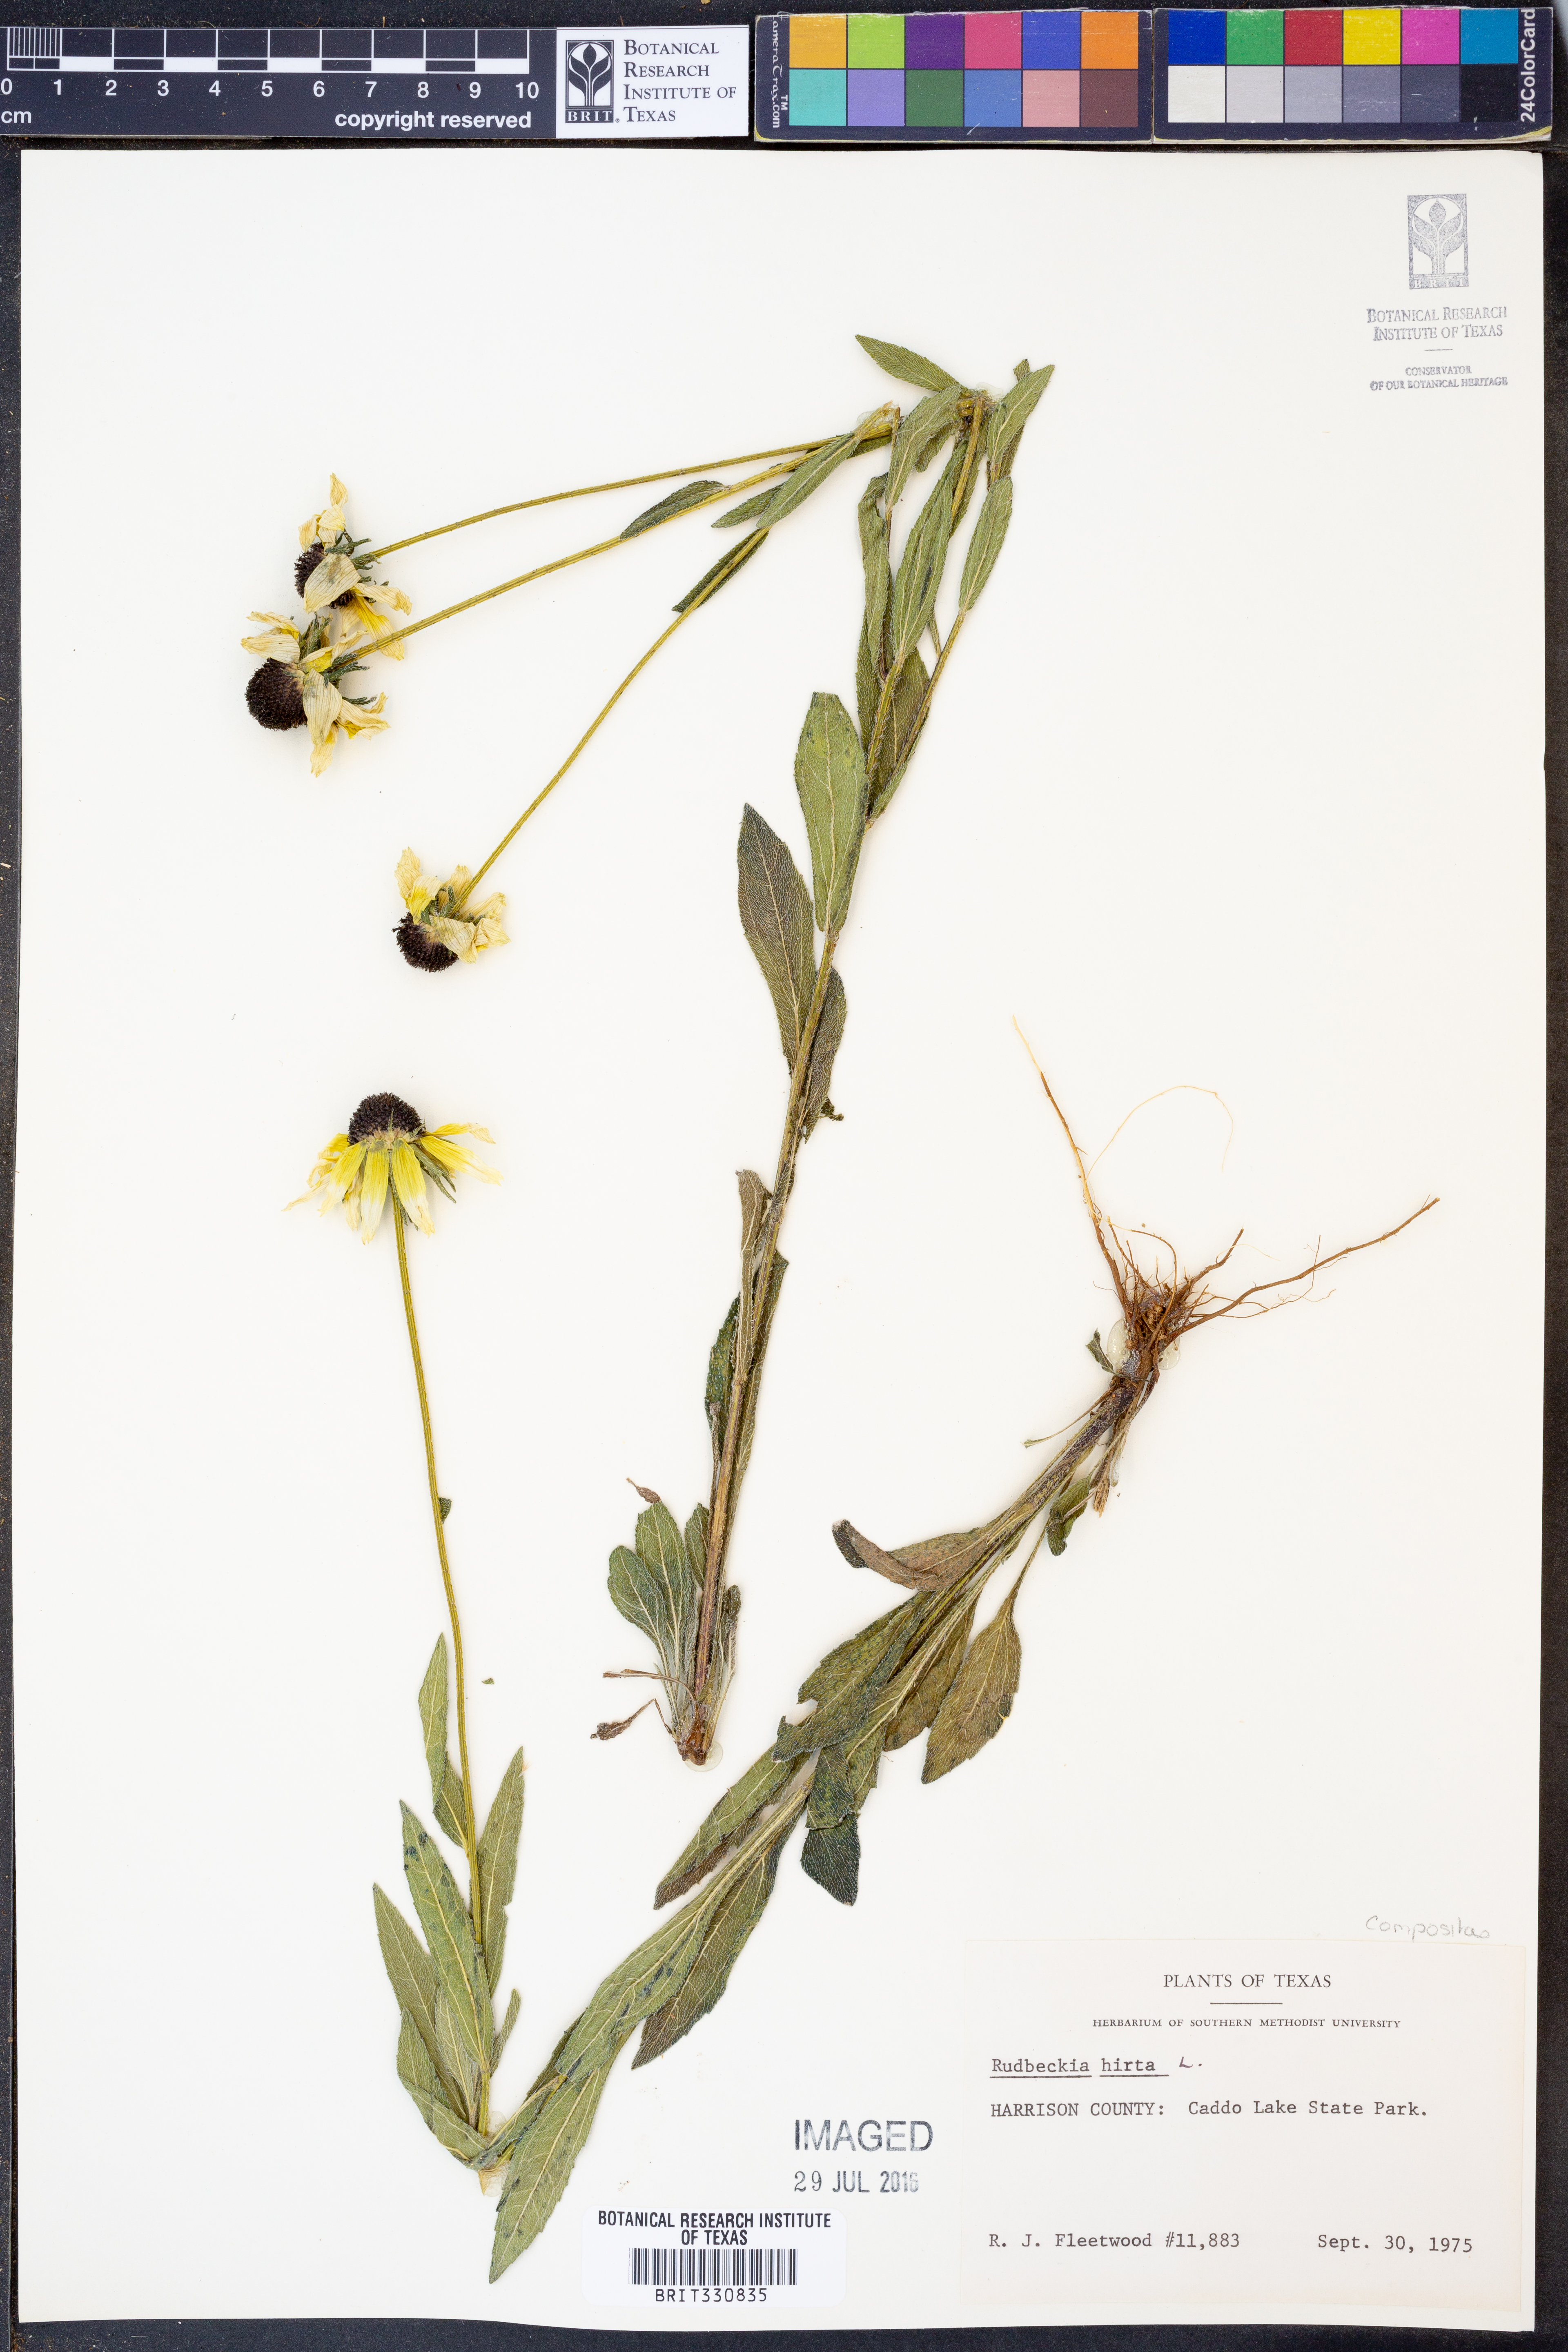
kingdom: Plantae
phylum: Tracheophyta
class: Magnoliopsida
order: Asterales
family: Asteraceae
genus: Rudbeckia
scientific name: Rudbeckia hirta
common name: Black-eyed-susan
